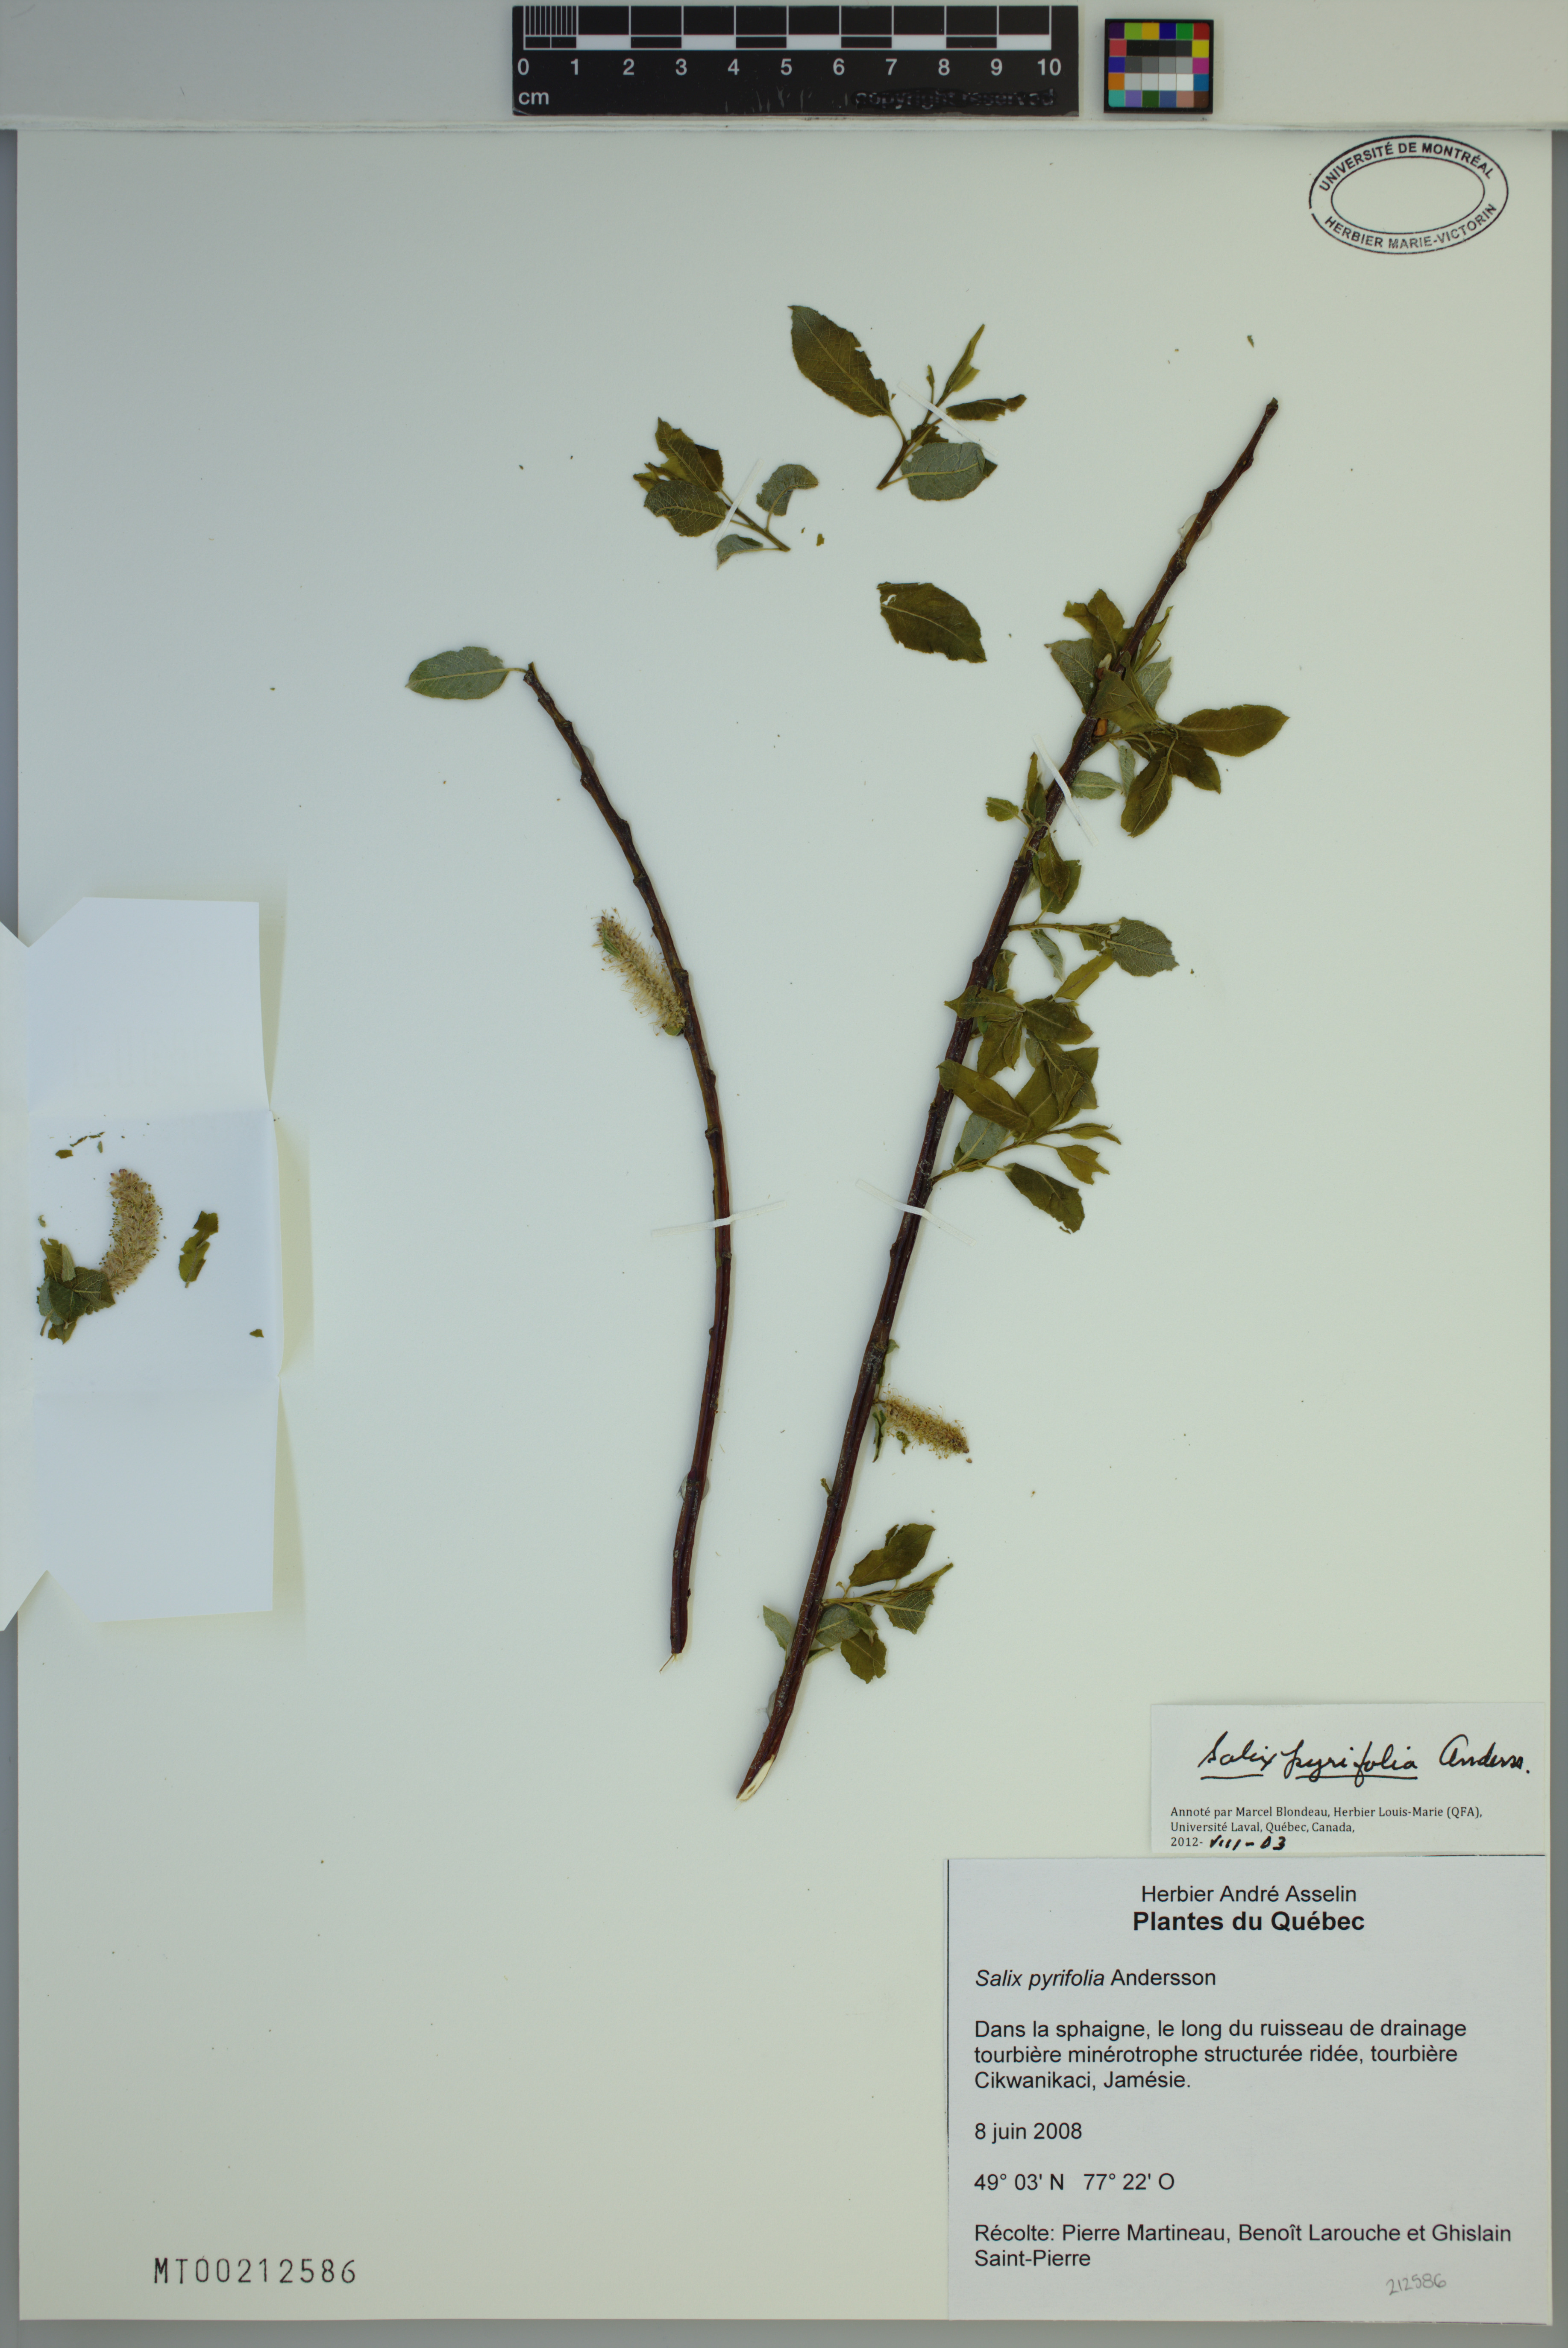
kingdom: Plantae
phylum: Tracheophyta
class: Magnoliopsida
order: Malpighiales
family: Salicaceae
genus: Salix
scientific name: Salix pyrifolia
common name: Balsam willow
